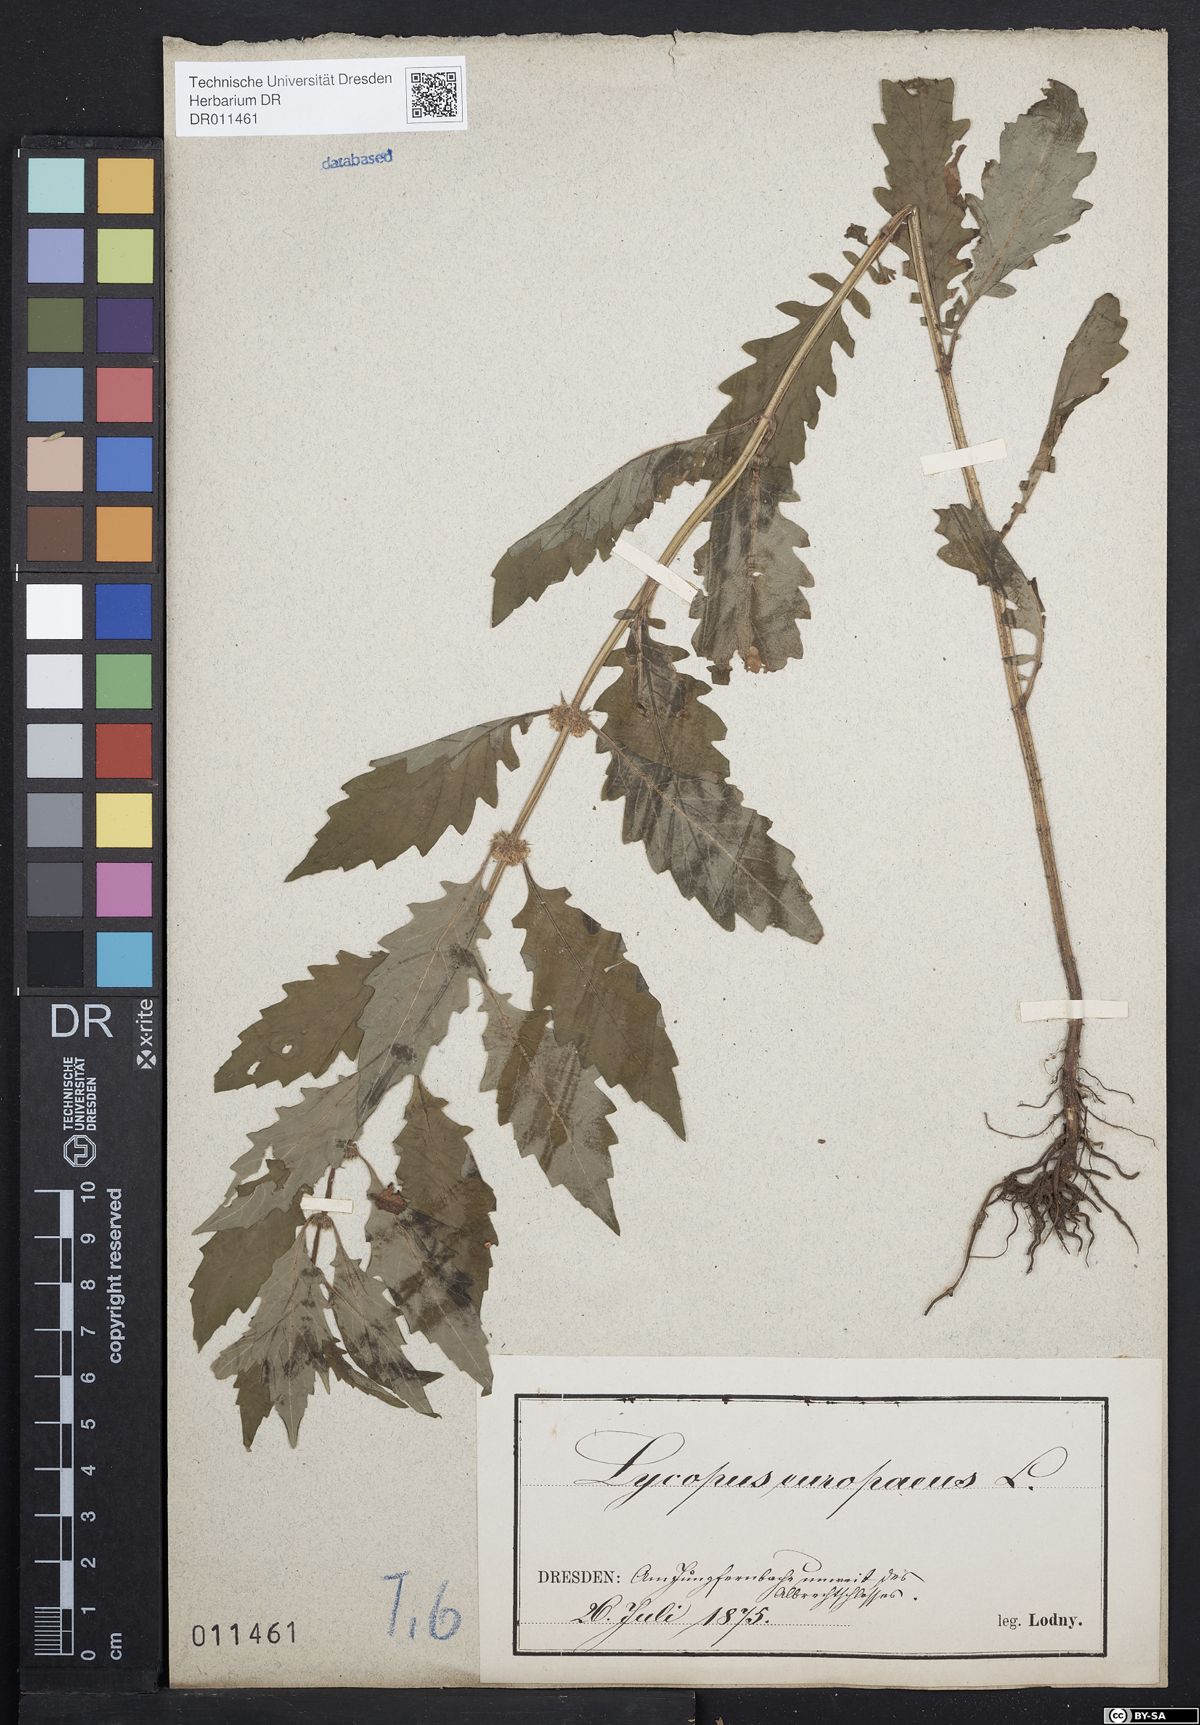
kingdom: Plantae
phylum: Tracheophyta
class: Magnoliopsida
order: Lamiales
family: Lamiaceae
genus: Lycopus
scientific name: Lycopus europaeus
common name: European bugleweed
